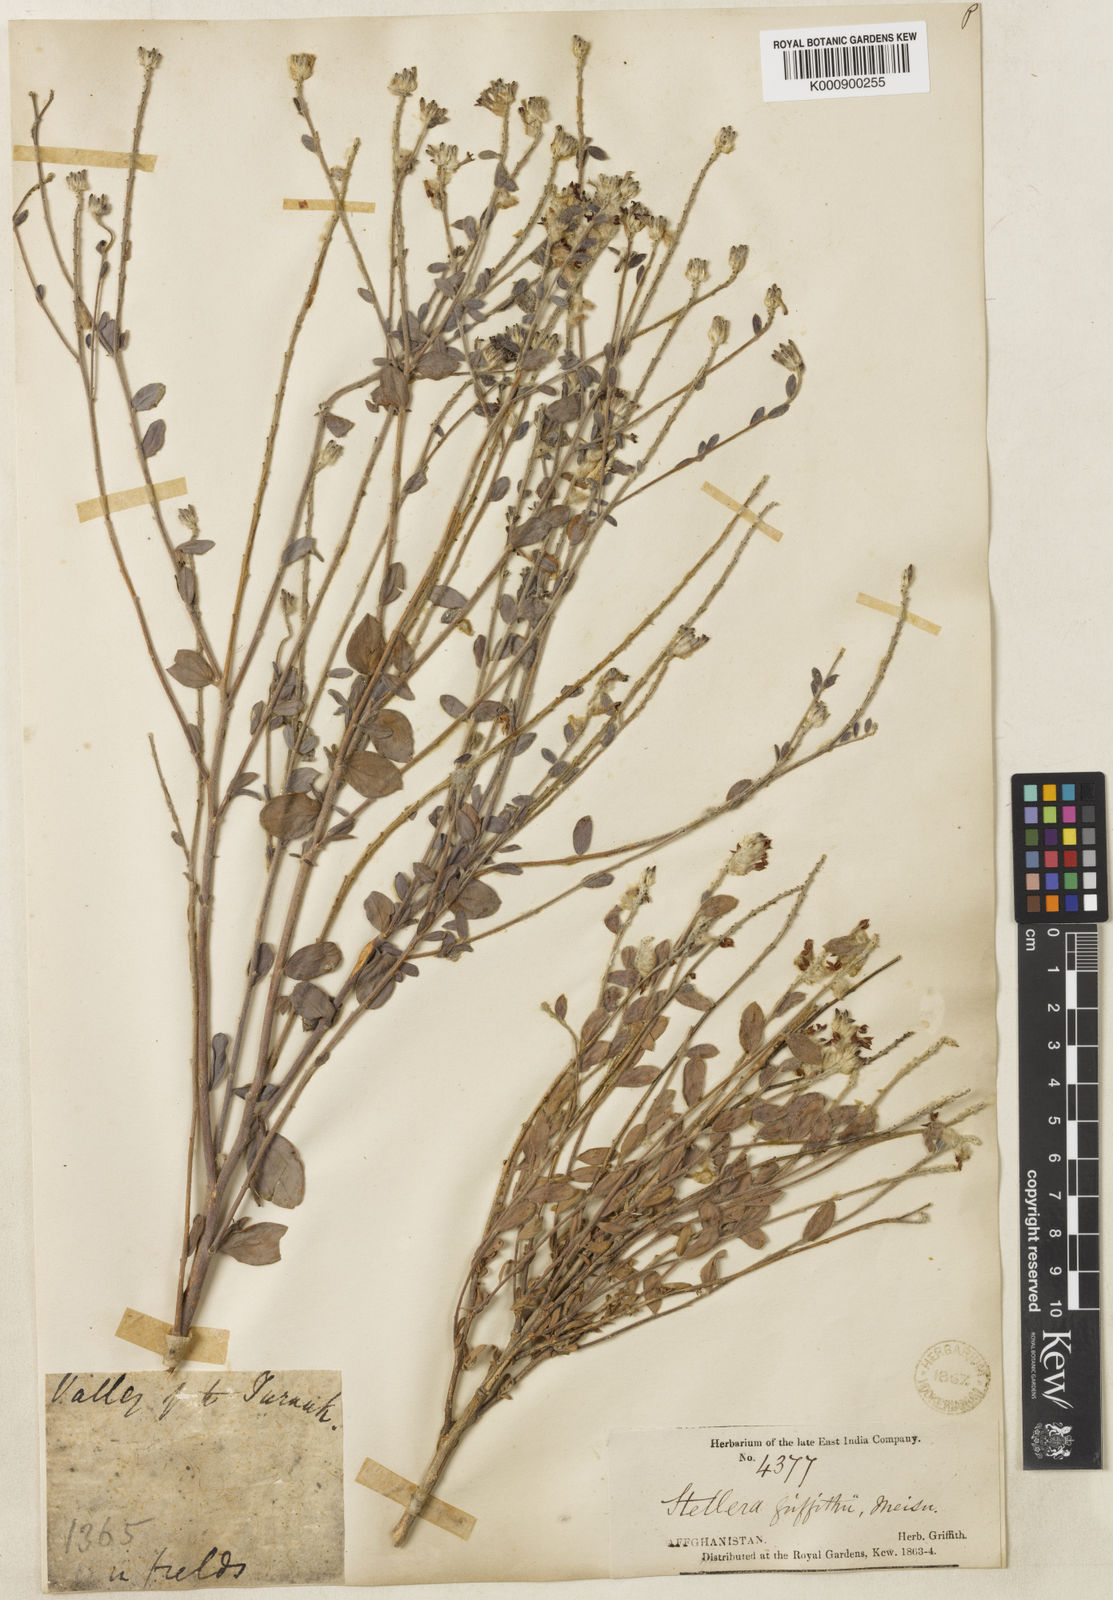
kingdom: Plantae
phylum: Tracheophyta
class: Magnoliopsida
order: Malvales
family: Thymelaeaceae
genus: Diarthron
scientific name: Diarthron lessertii
